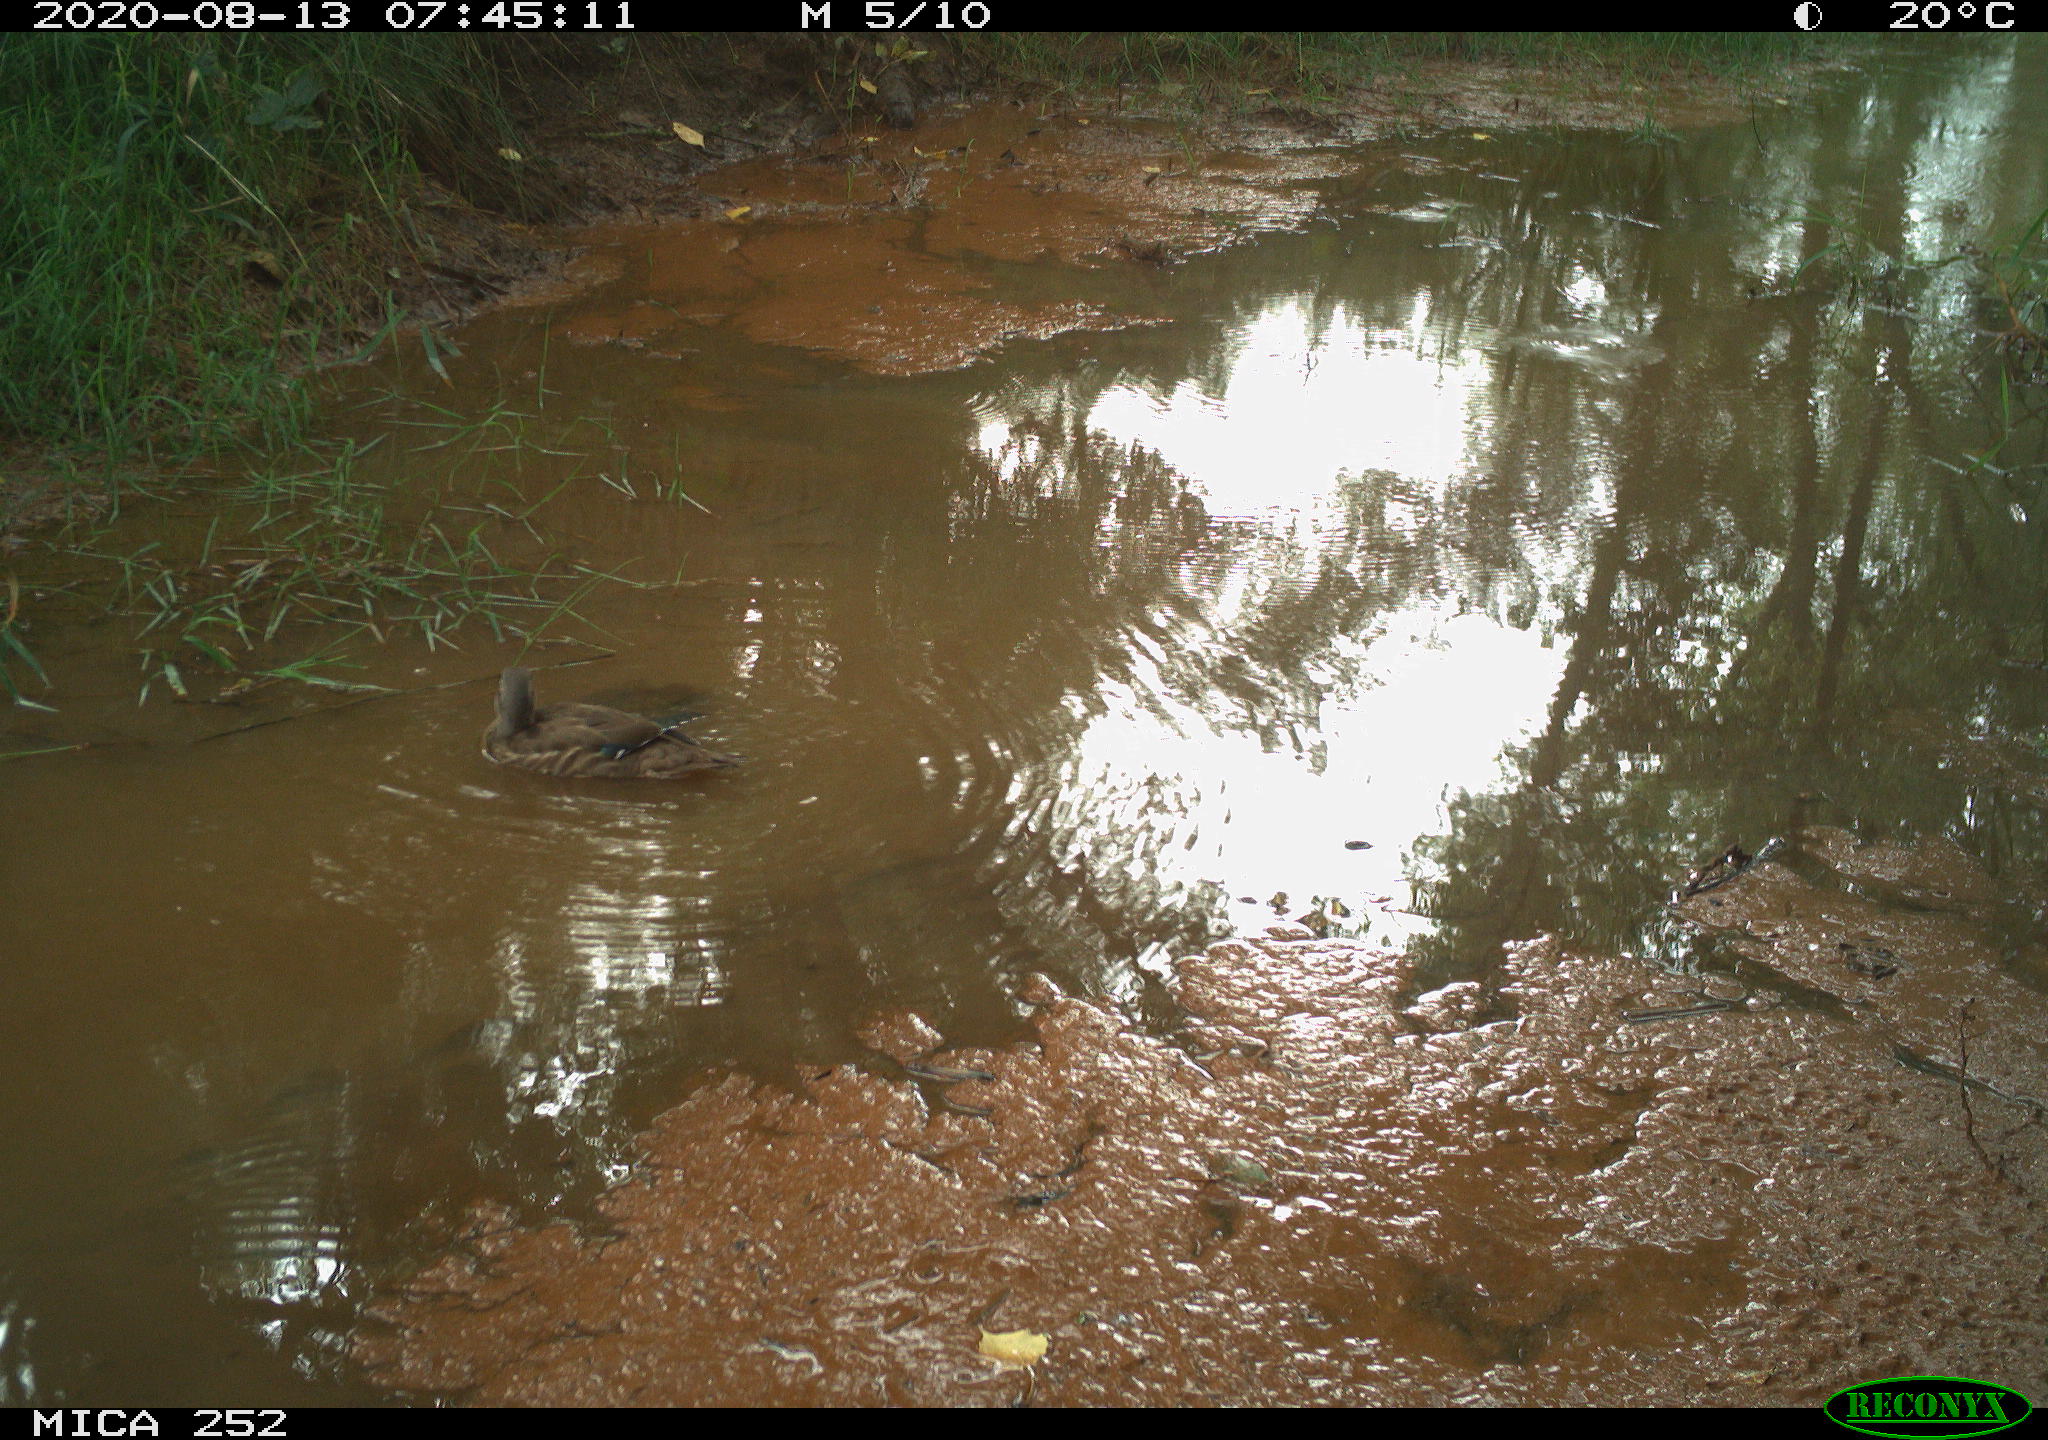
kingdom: Animalia
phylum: Chordata
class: Aves
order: Anseriformes
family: Anatidae
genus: Aix
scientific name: Aix galericulata
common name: Mandarin duck
